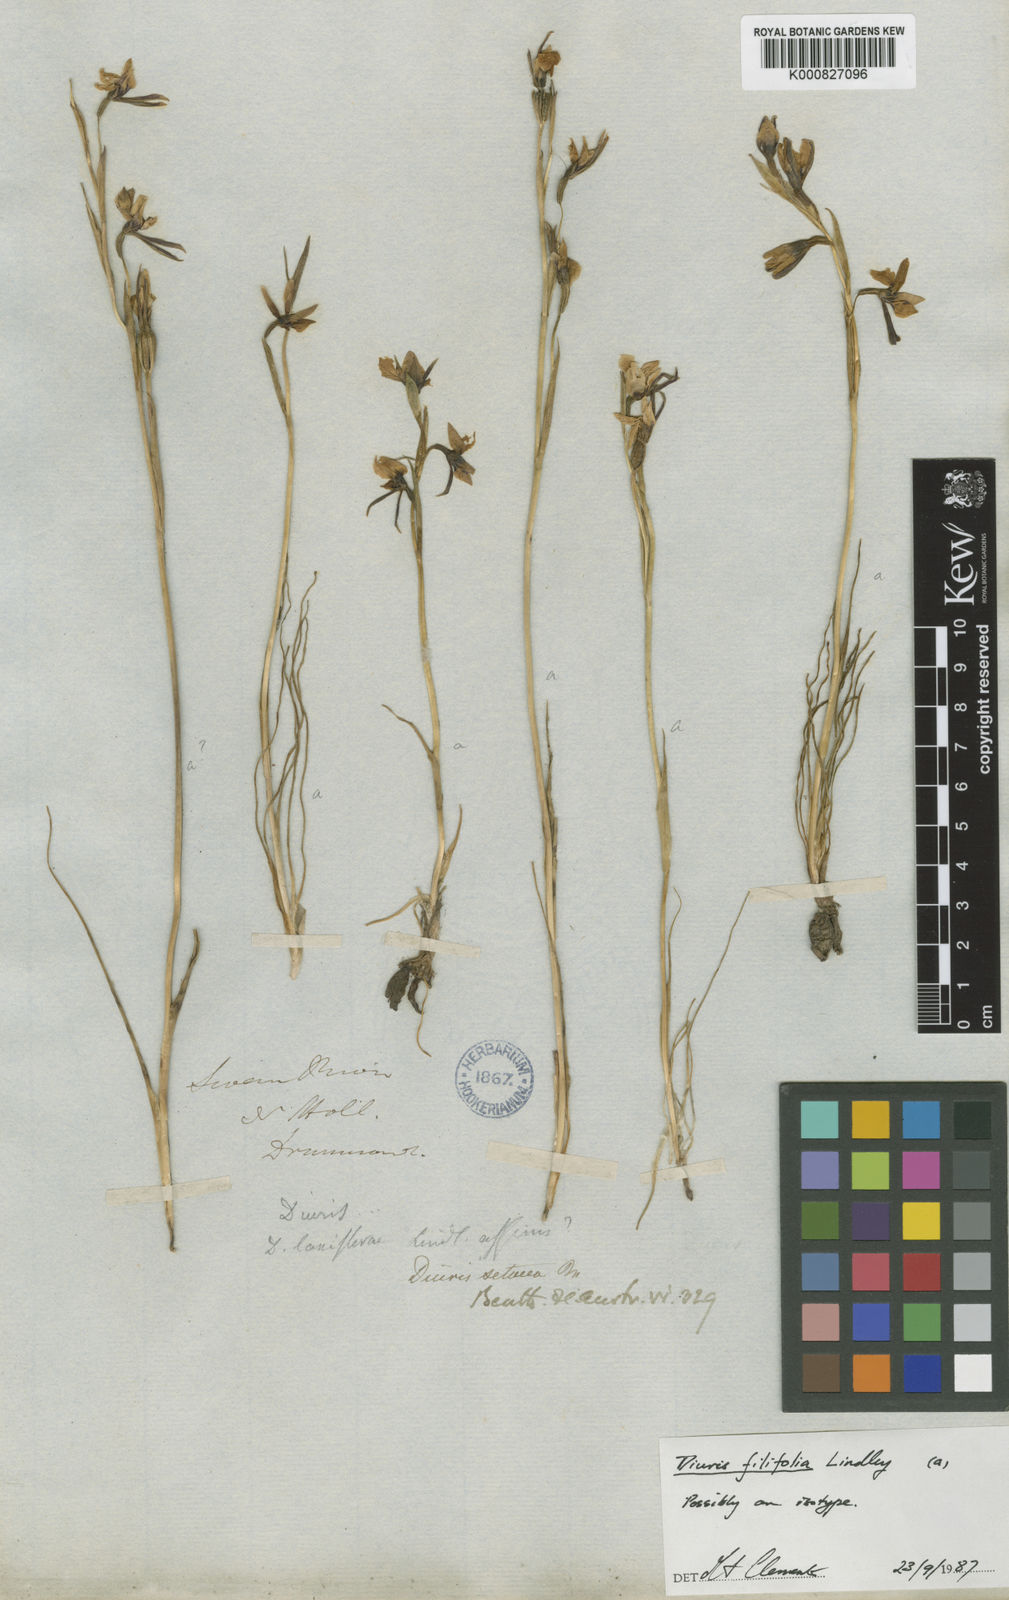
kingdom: Plantae
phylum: Tracheophyta
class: Liliopsida
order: Asparagales
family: Orchidaceae
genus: Diuris
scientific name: Diuris setacea
